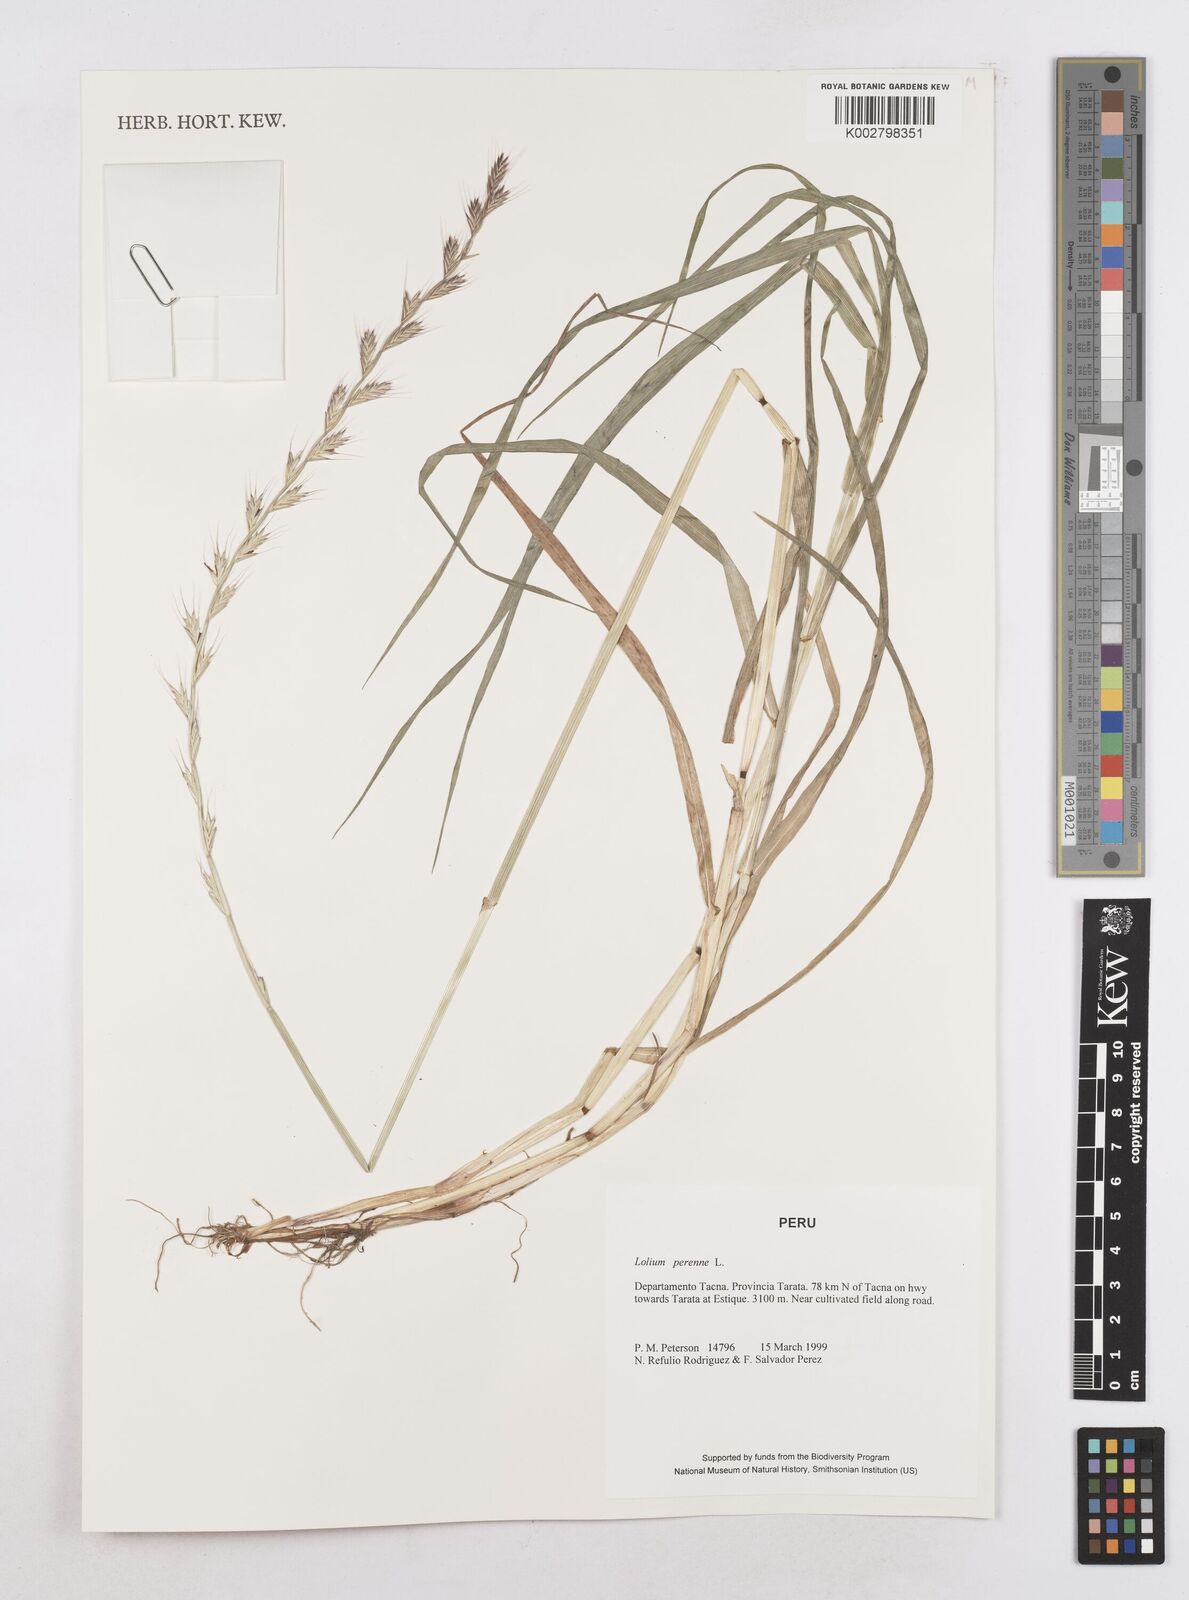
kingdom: Plantae
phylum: Tracheophyta
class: Liliopsida
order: Poales
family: Poaceae
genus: Lolium
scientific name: Lolium perenne
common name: Perennial ryegrass
